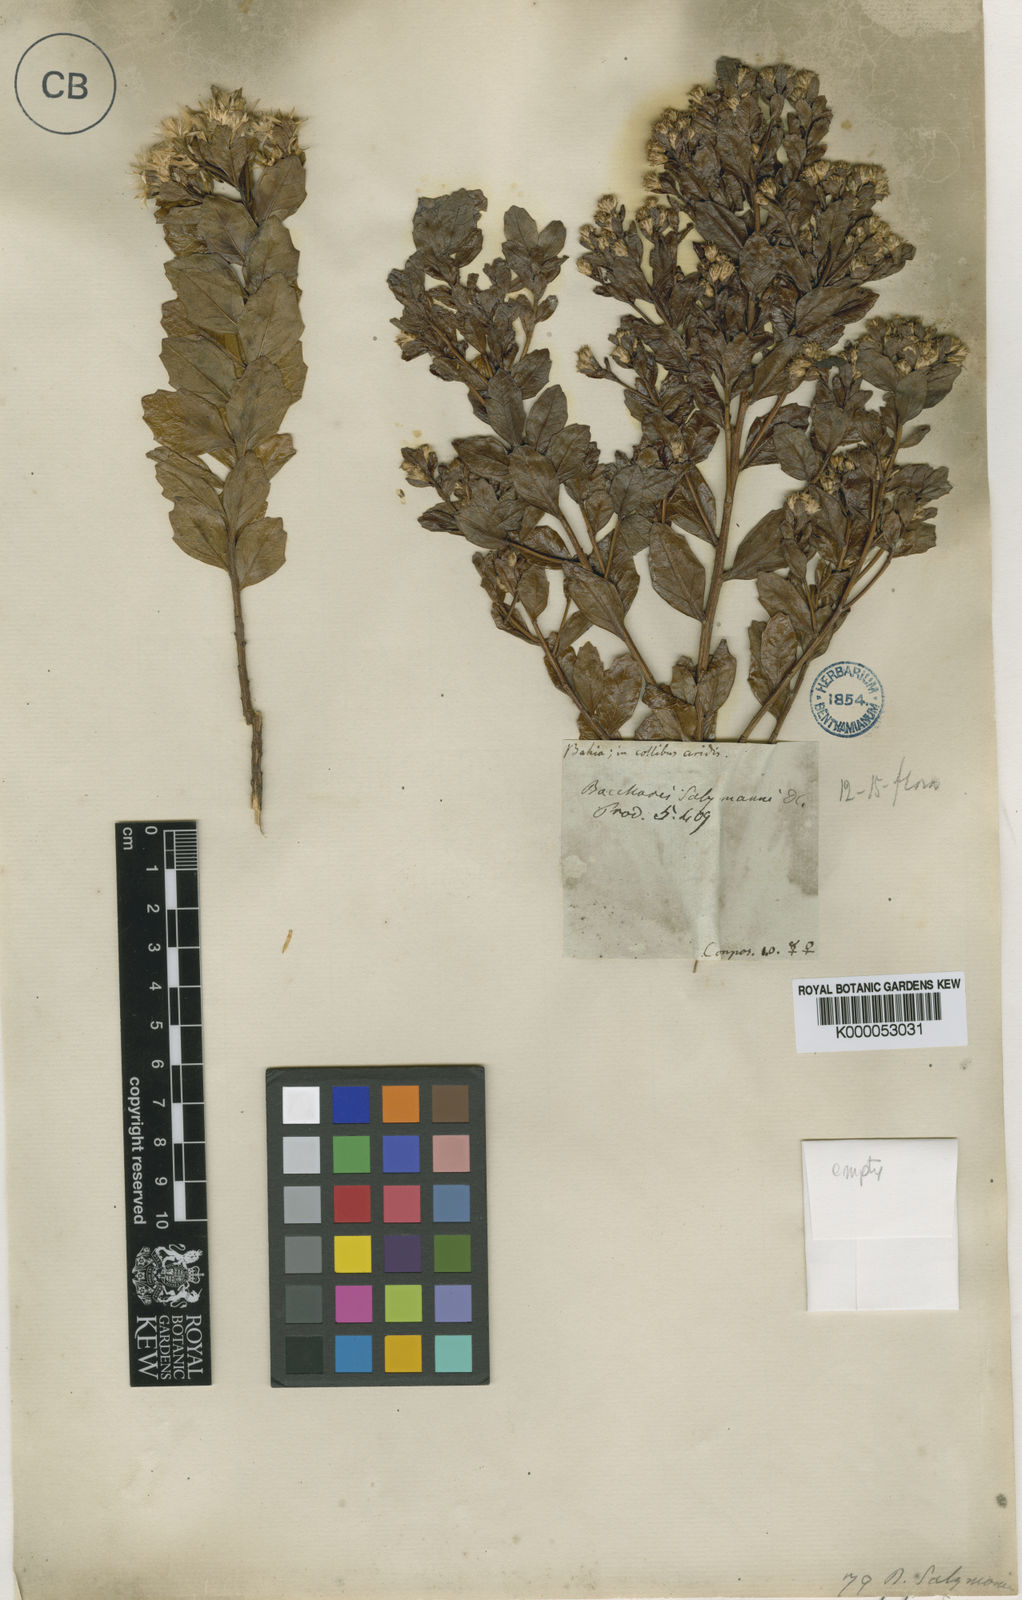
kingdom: Plantae
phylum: Tracheophyta
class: Magnoliopsida
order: Asterales
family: Asteraceae
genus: Baccharis
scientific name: Baccharis retusa
